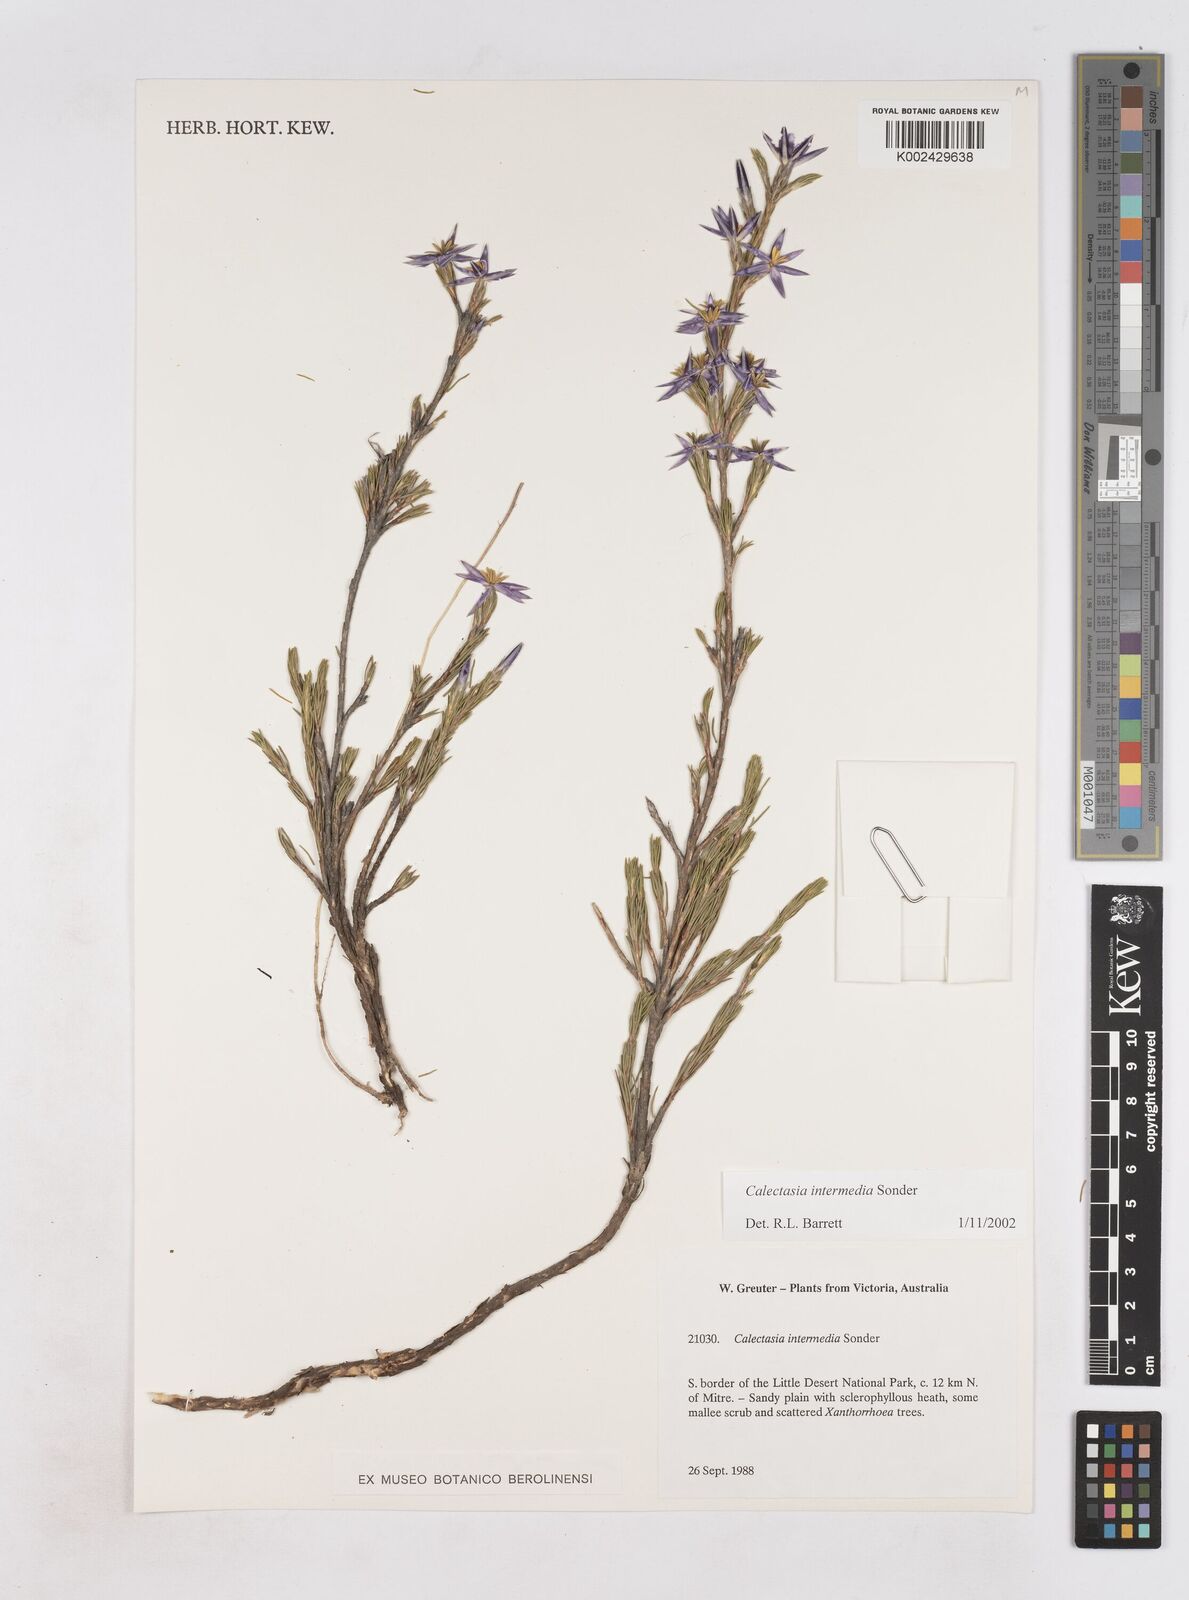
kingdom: Plantae
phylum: Tracheophyta
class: Liliopsida
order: Arecales
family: Dasypogonaceae
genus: Calectasia
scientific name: Calectasia intermedia
